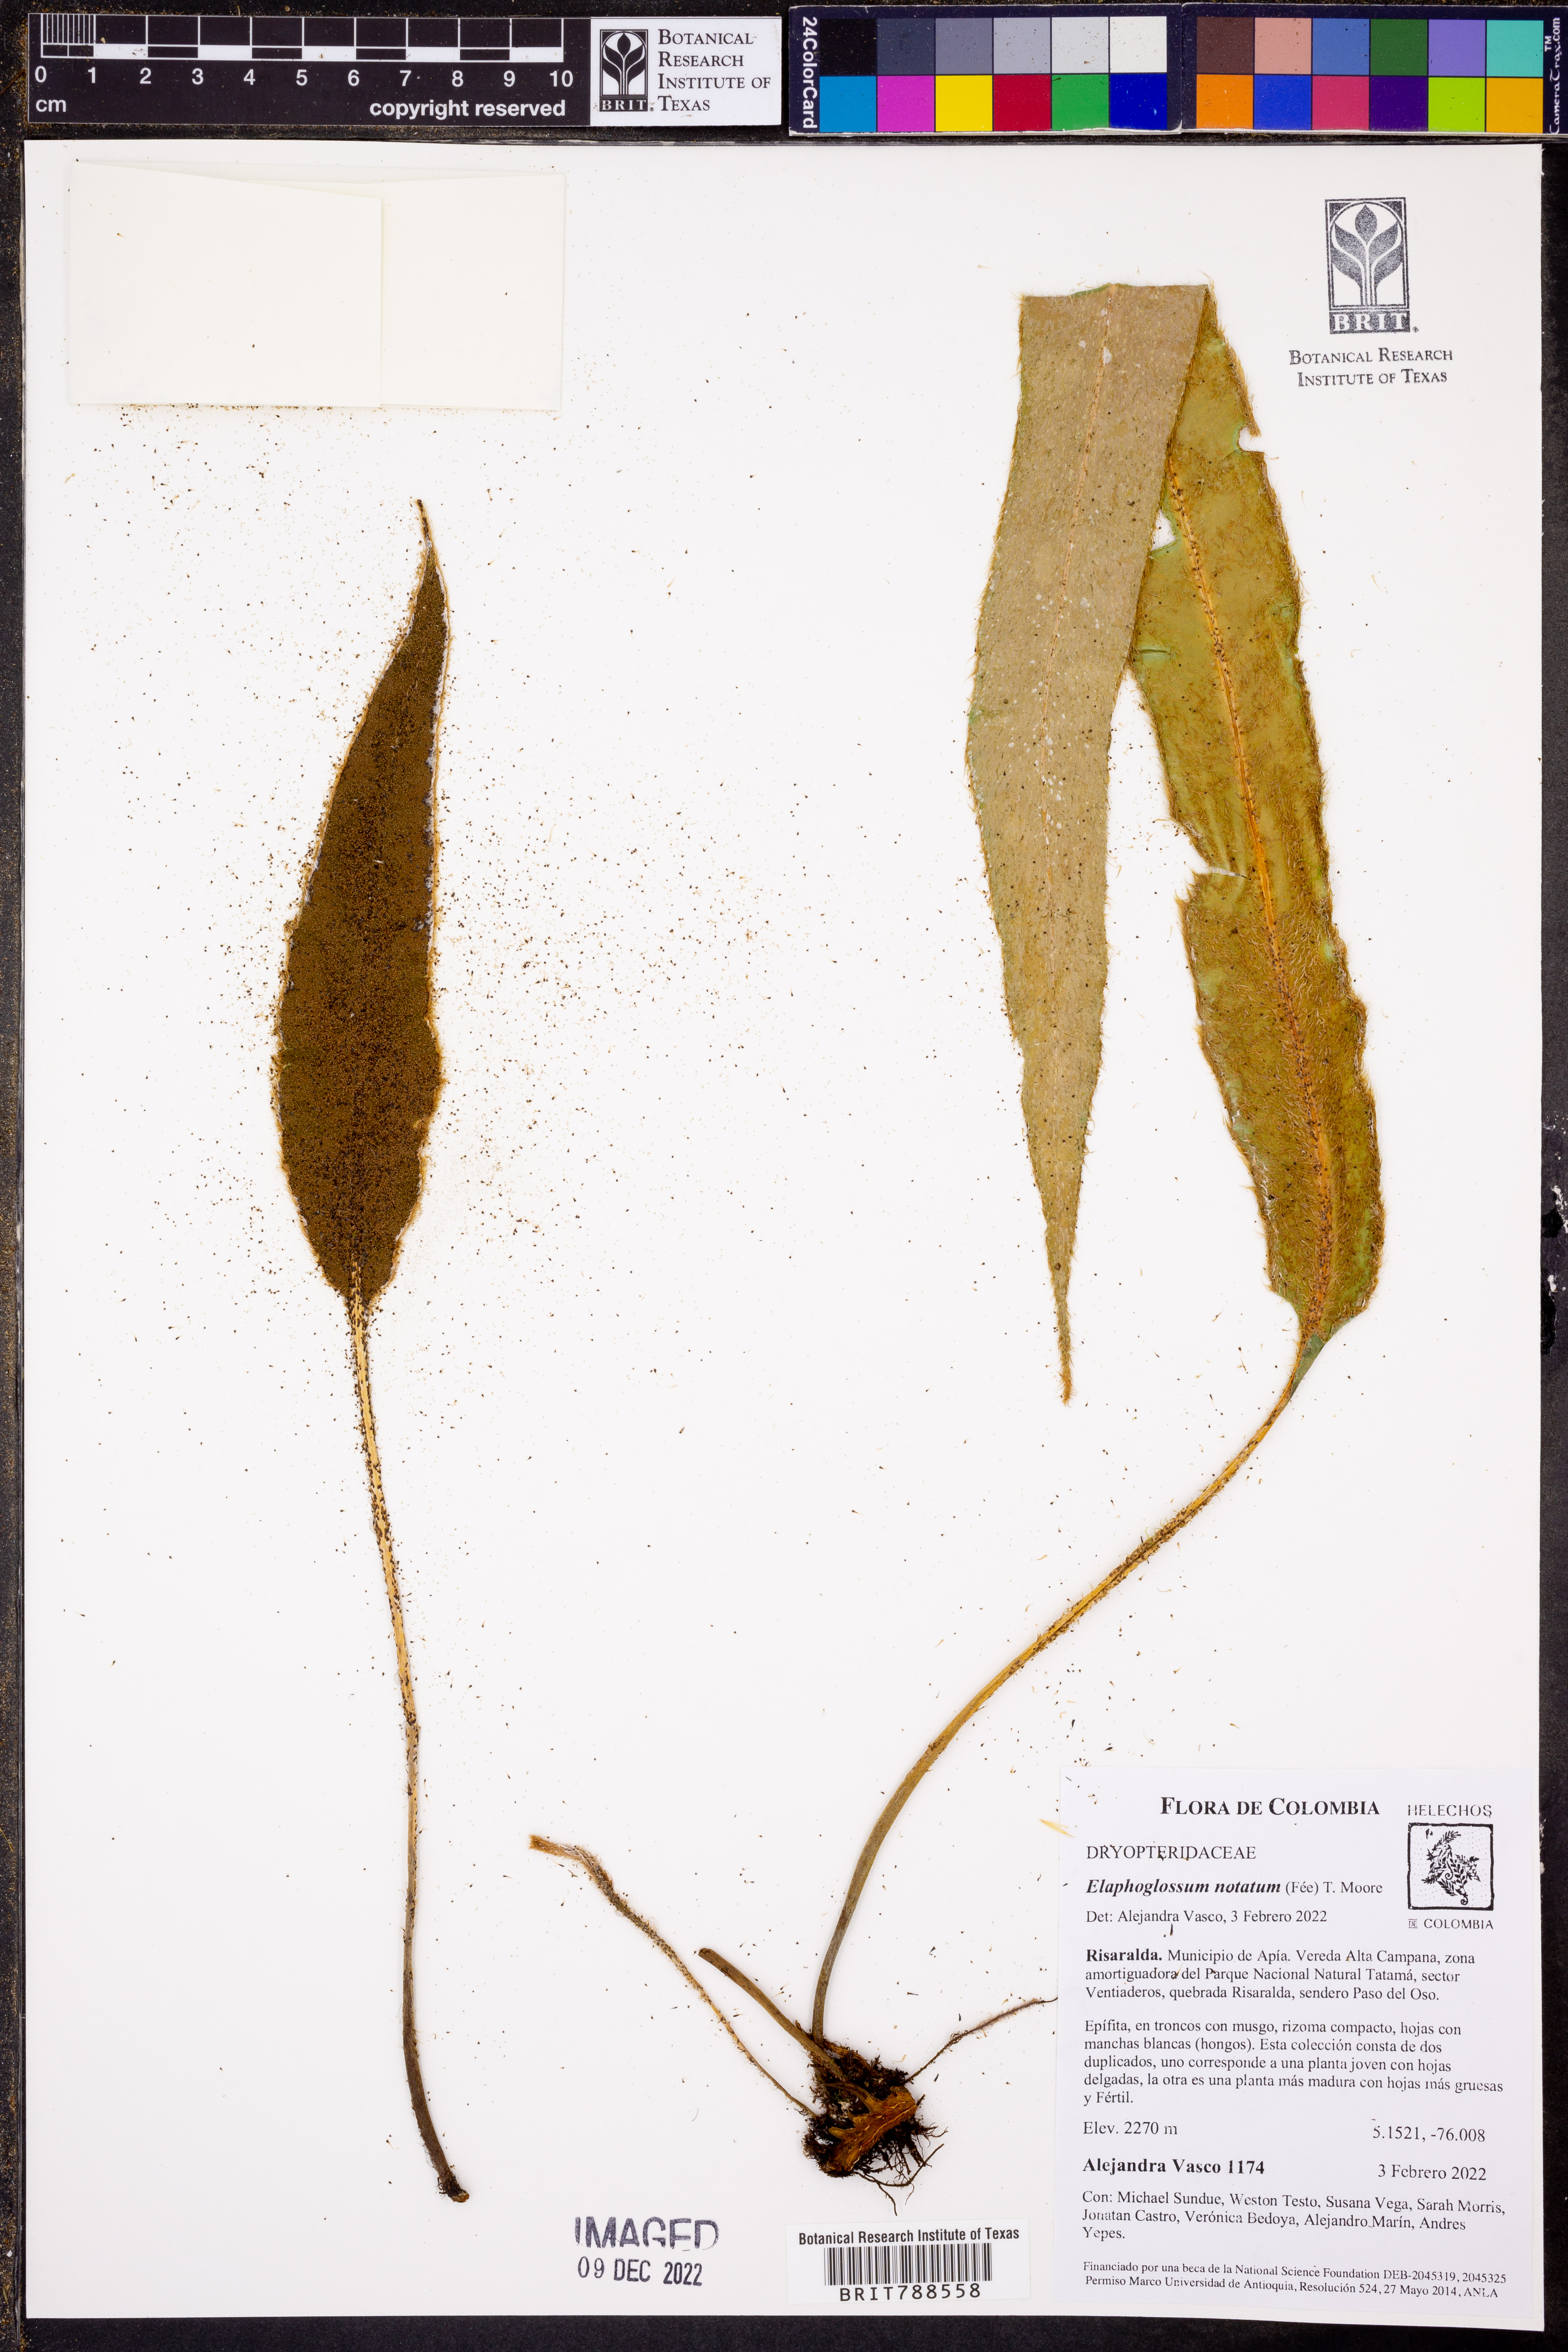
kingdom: Plantae
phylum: Tracheophyta
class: Polypodiopsida
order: Polypodiales
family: Dryopteridaceae
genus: Elaphoglossum
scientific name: Elaphoglossum notatum
